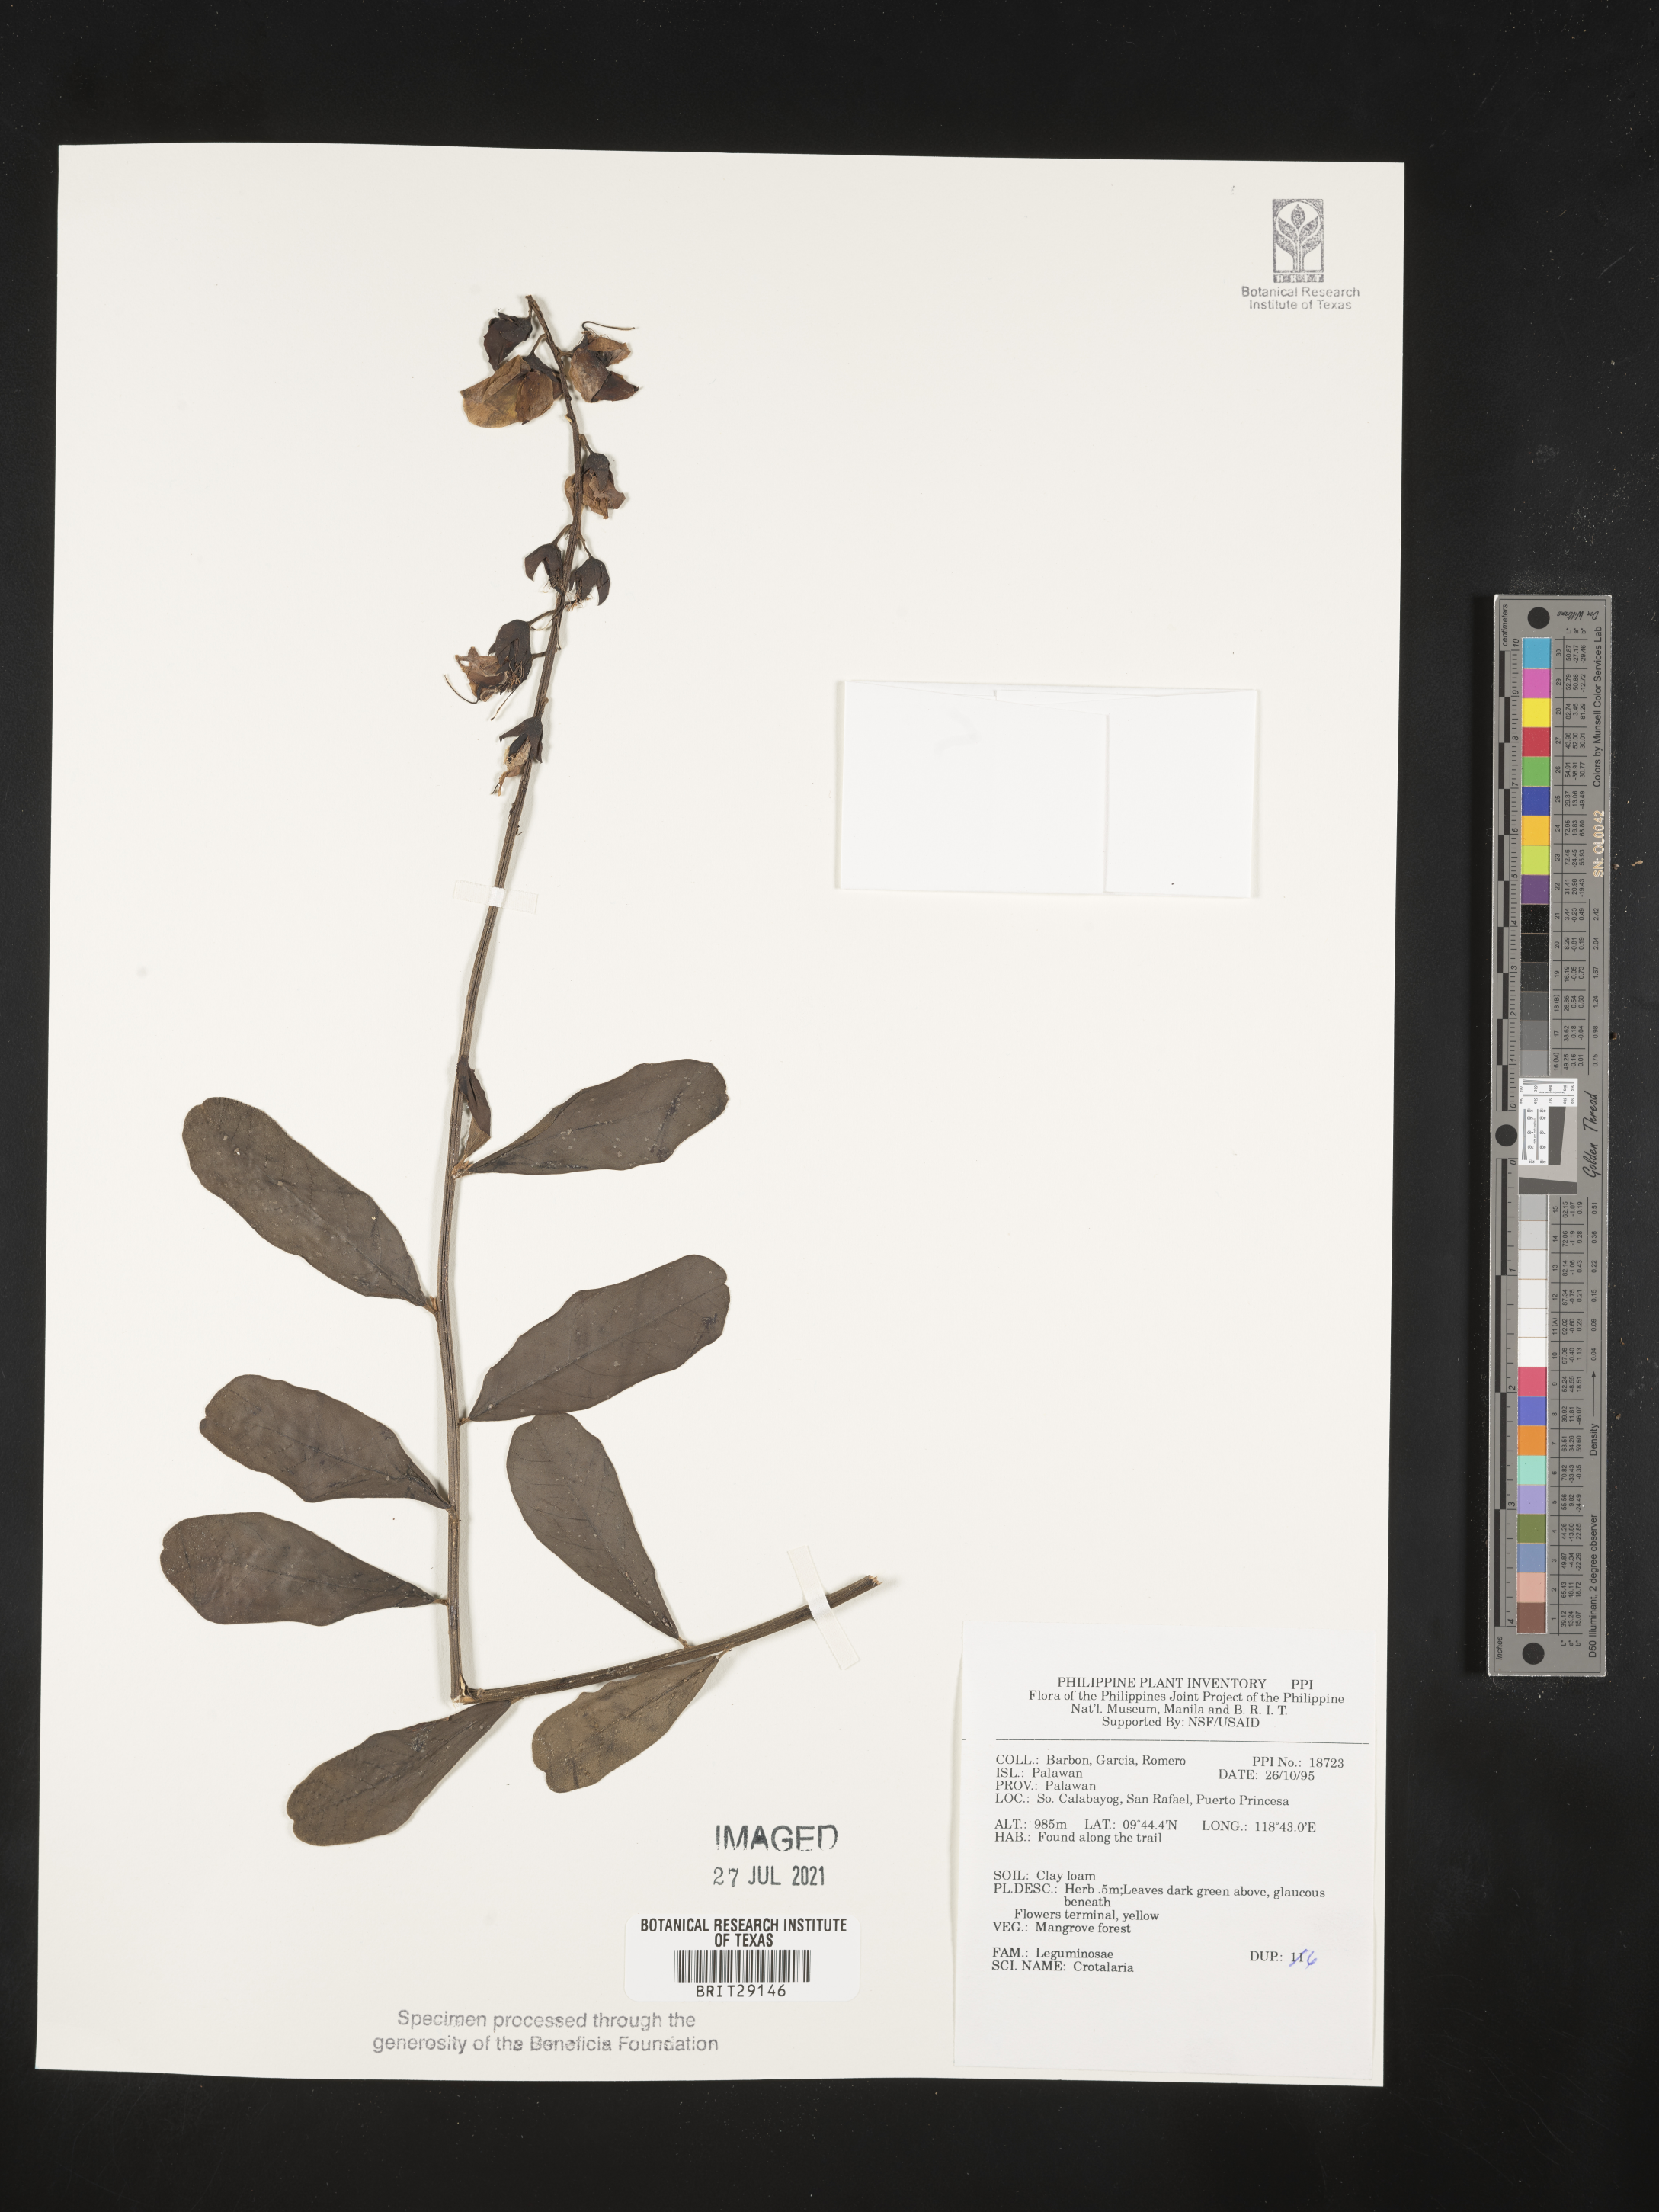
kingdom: Plantae
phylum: Tracheophyta
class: Magnoliopsida
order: Fabales
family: Fabaceae
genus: Crotalaria
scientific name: Crotalaria
